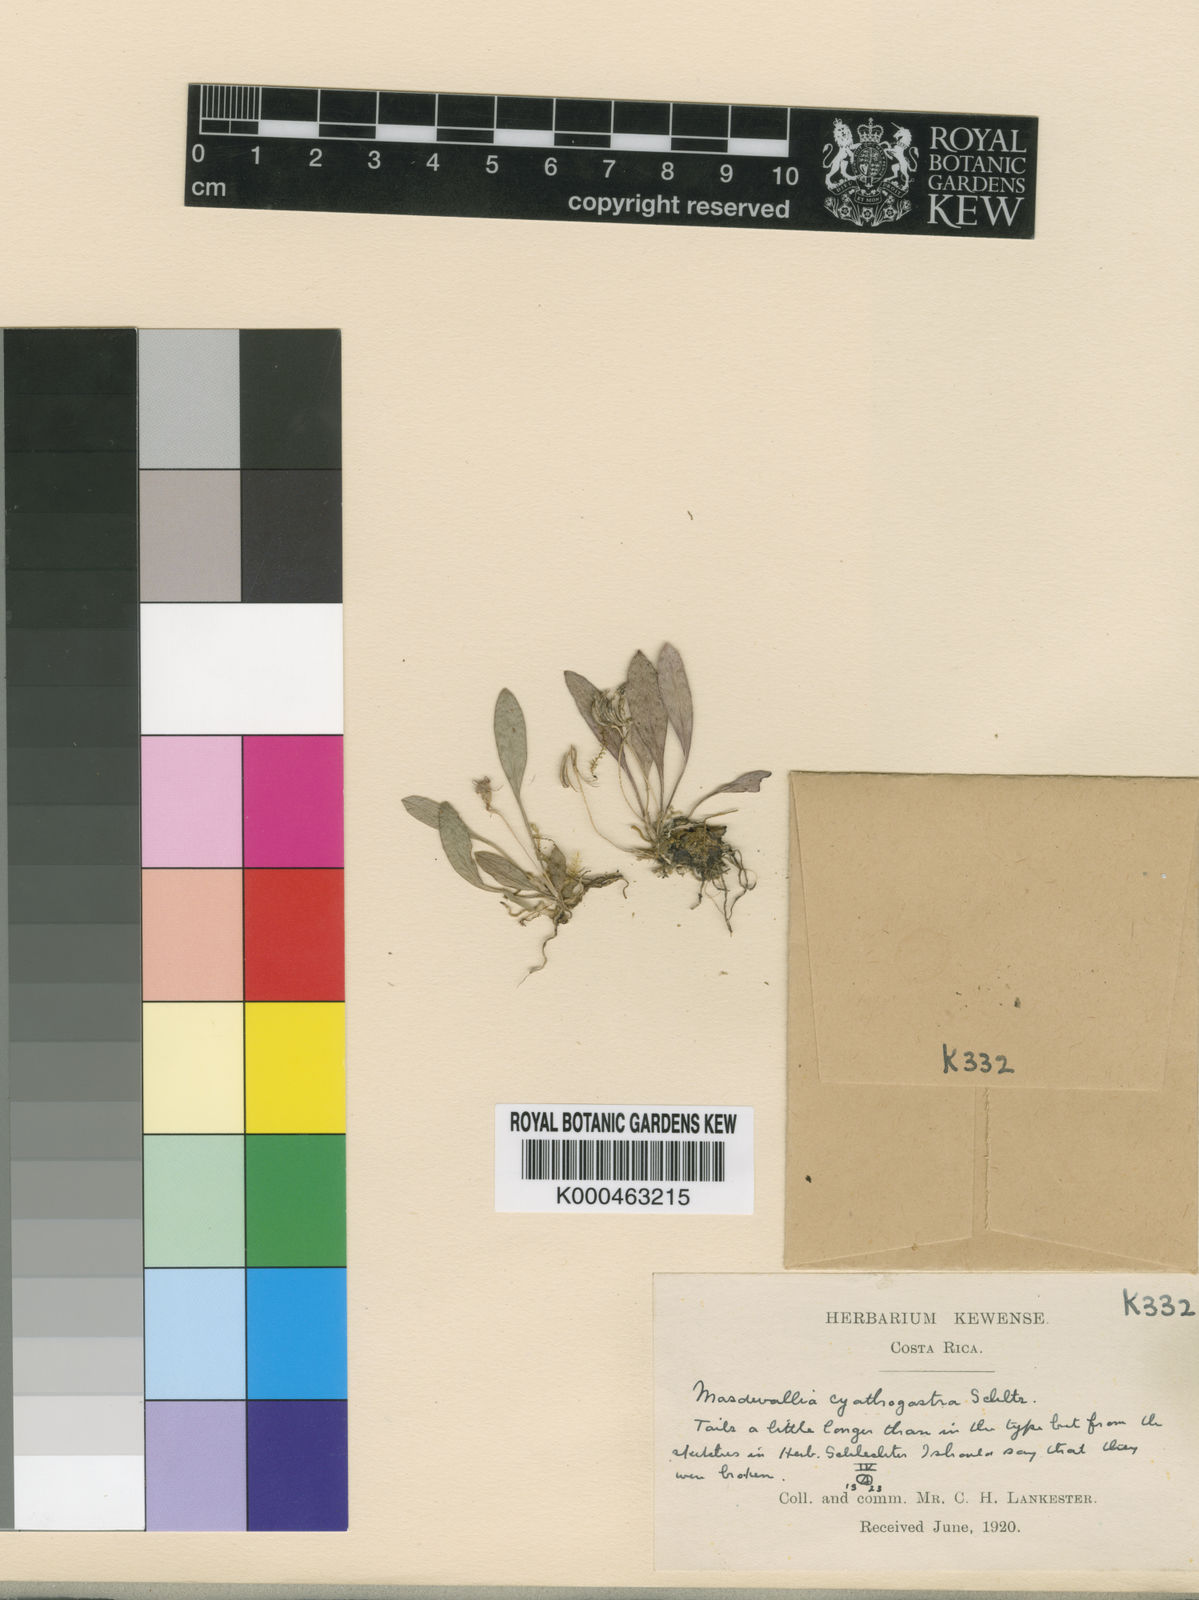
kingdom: Plantae
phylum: Tracheophyta
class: Liliopsida
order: Asparagales
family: Orchidaceae
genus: Masdevallia
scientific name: Masdevallia nidifica
